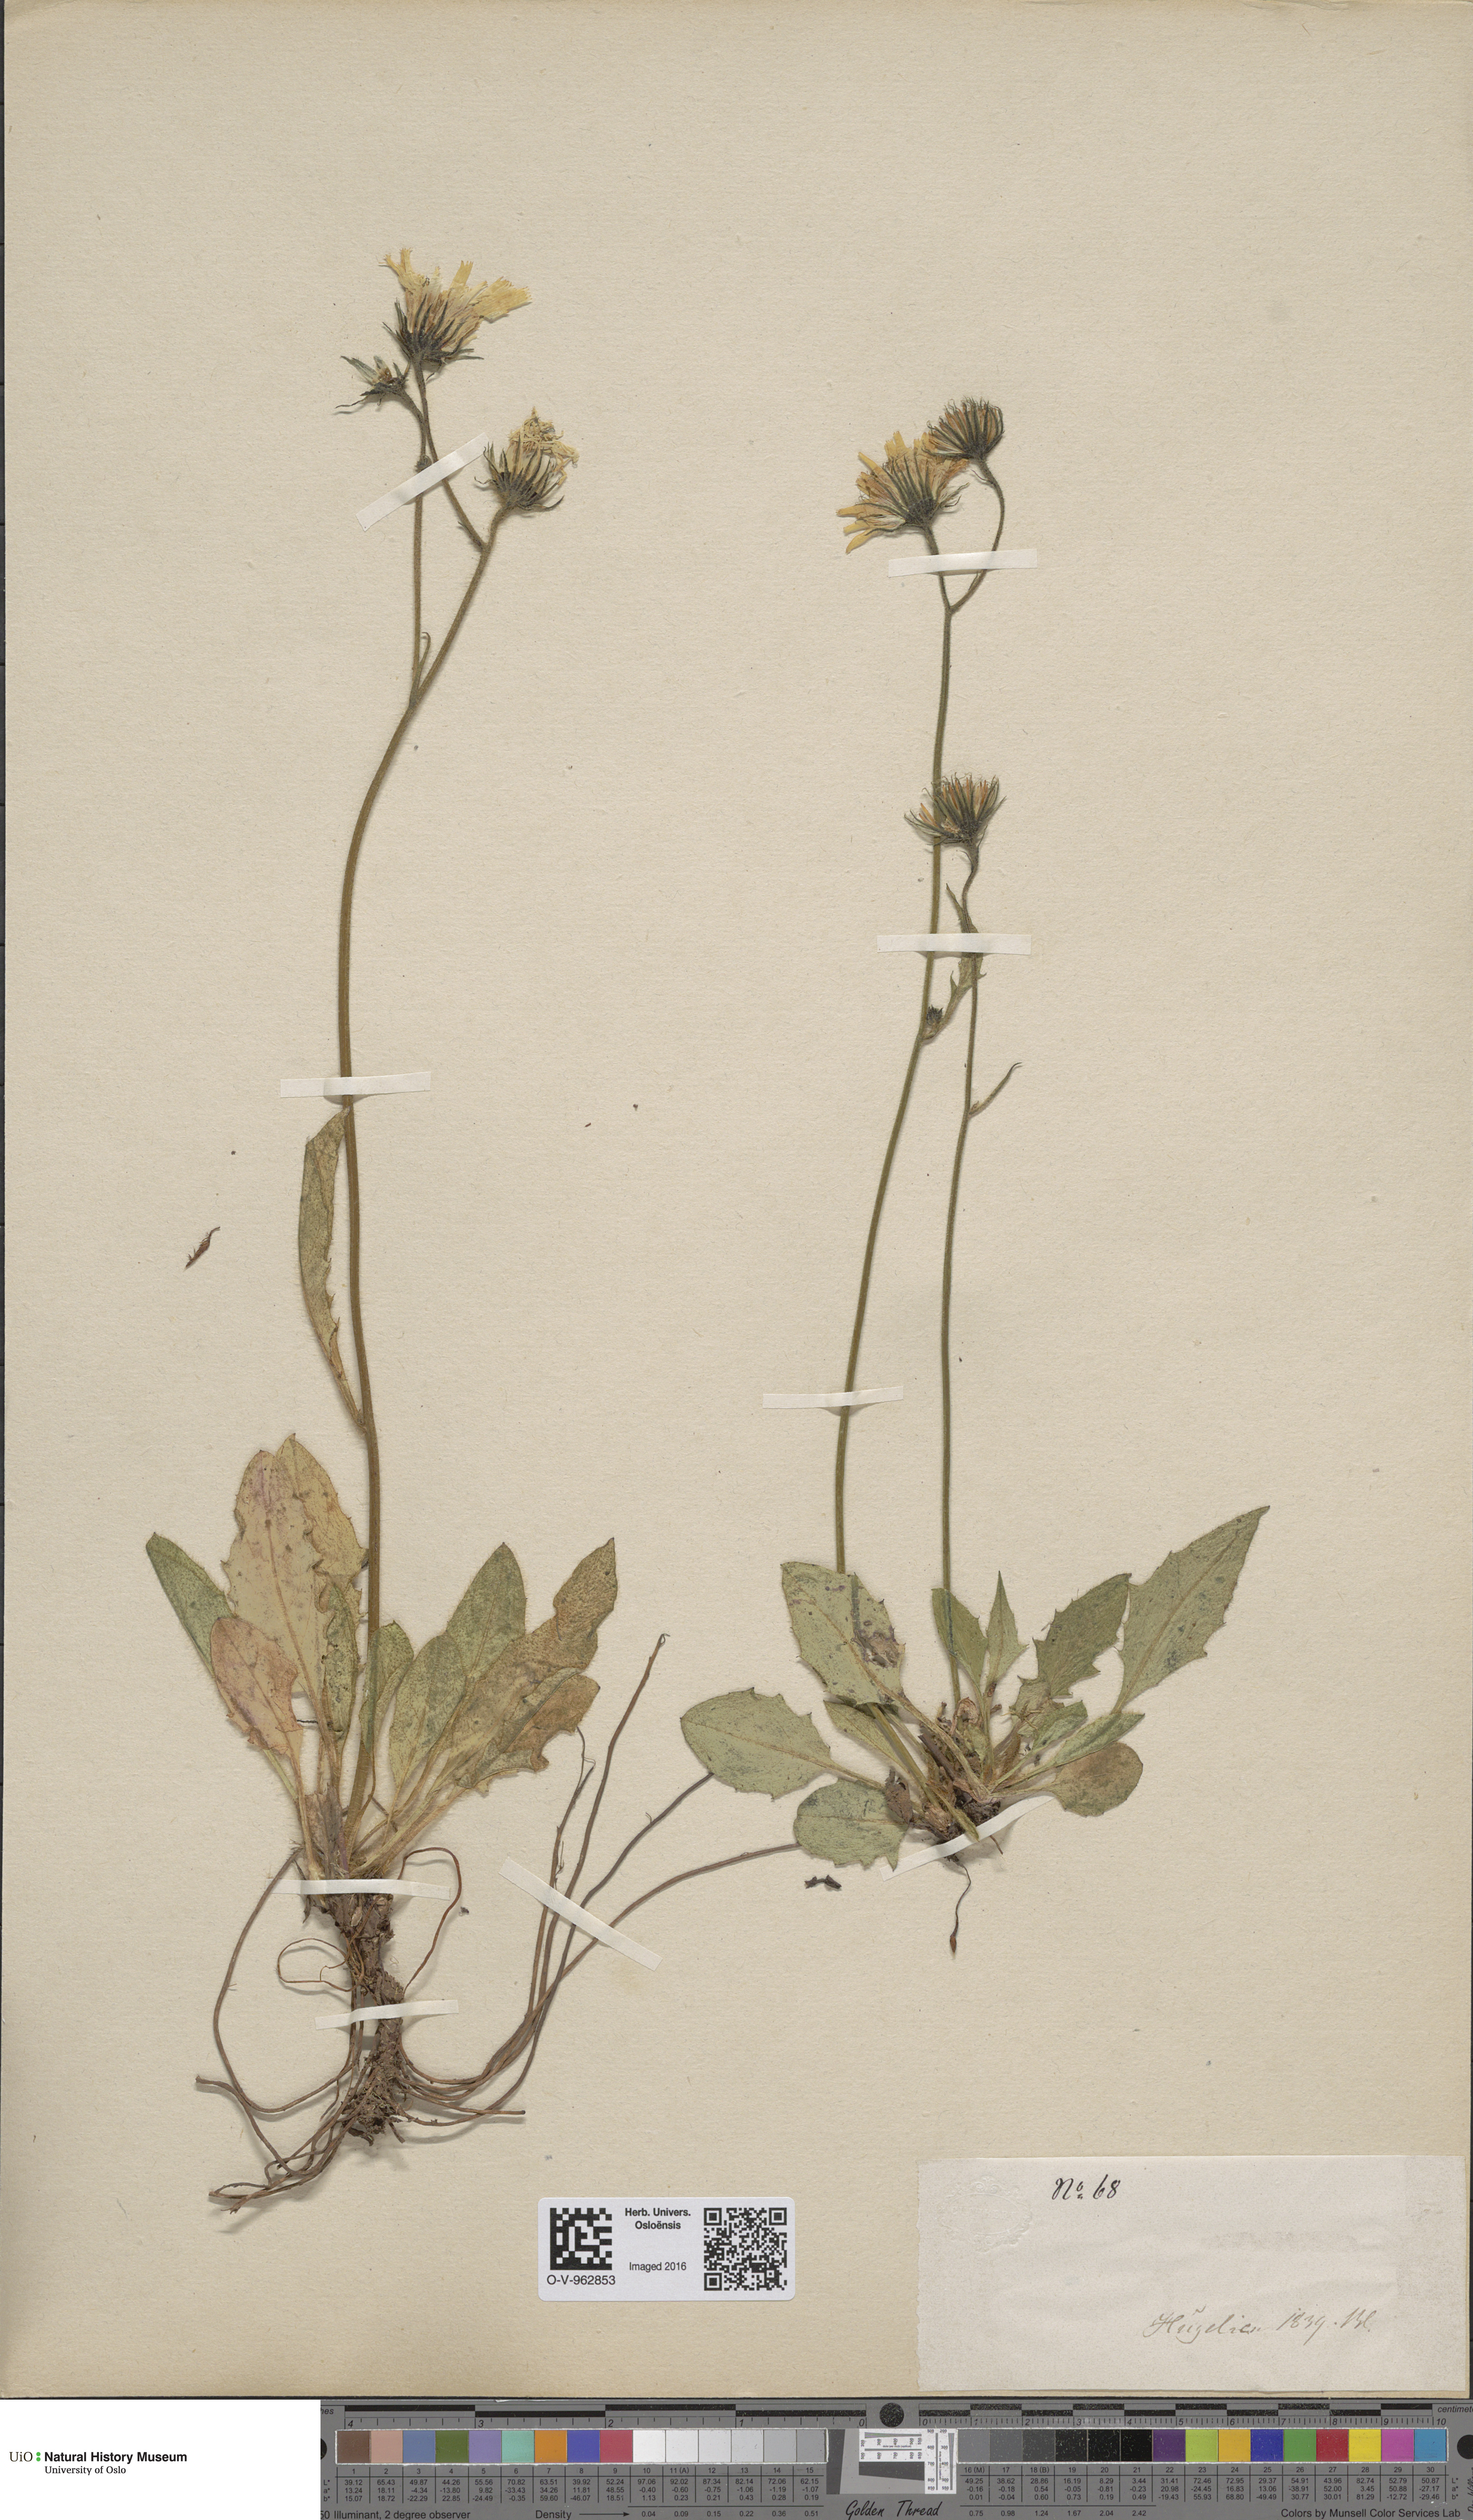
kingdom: Plantae
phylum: Tracheophyta
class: Magnoliopsida
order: Asterales
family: Asteraceae
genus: Hieracium
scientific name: Hieracium
